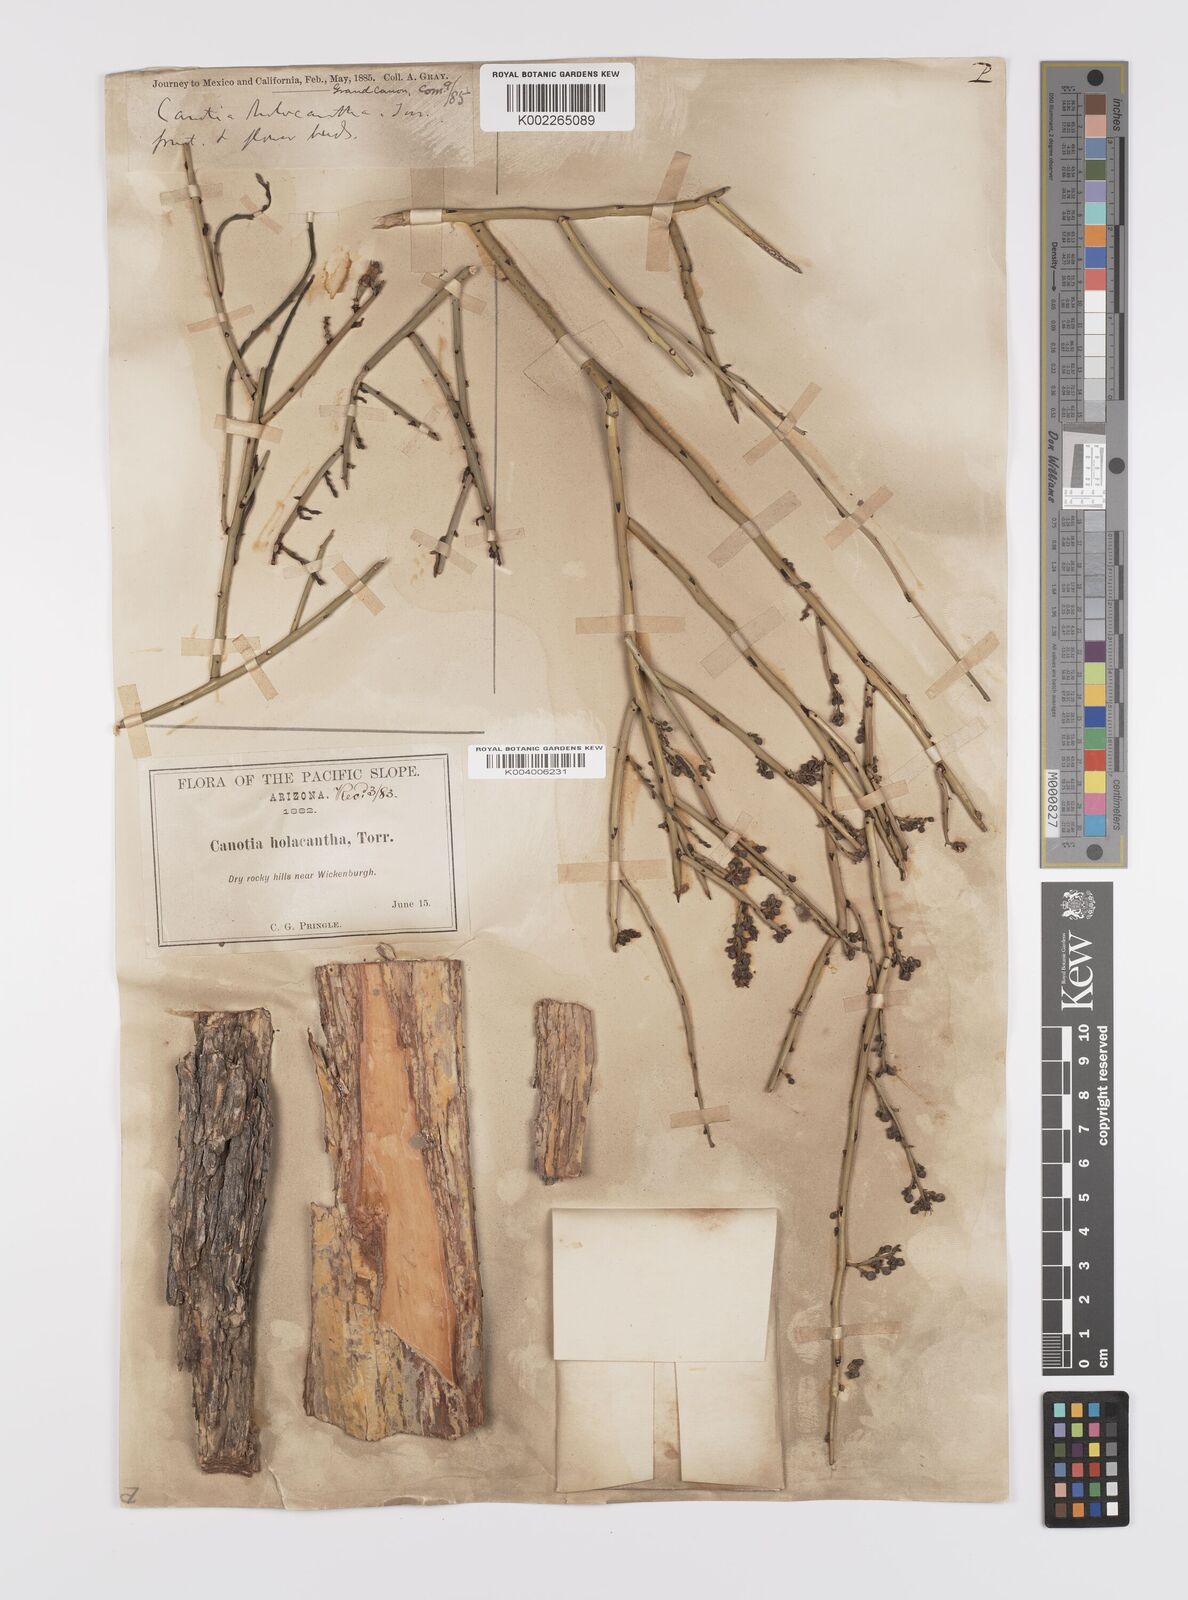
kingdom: Plantae
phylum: Tracheophyta
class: Magnoliopsida
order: Celastrales
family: Celastraceae
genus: Canotia
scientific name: Canotia holacantha
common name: Crucifixion thorns
